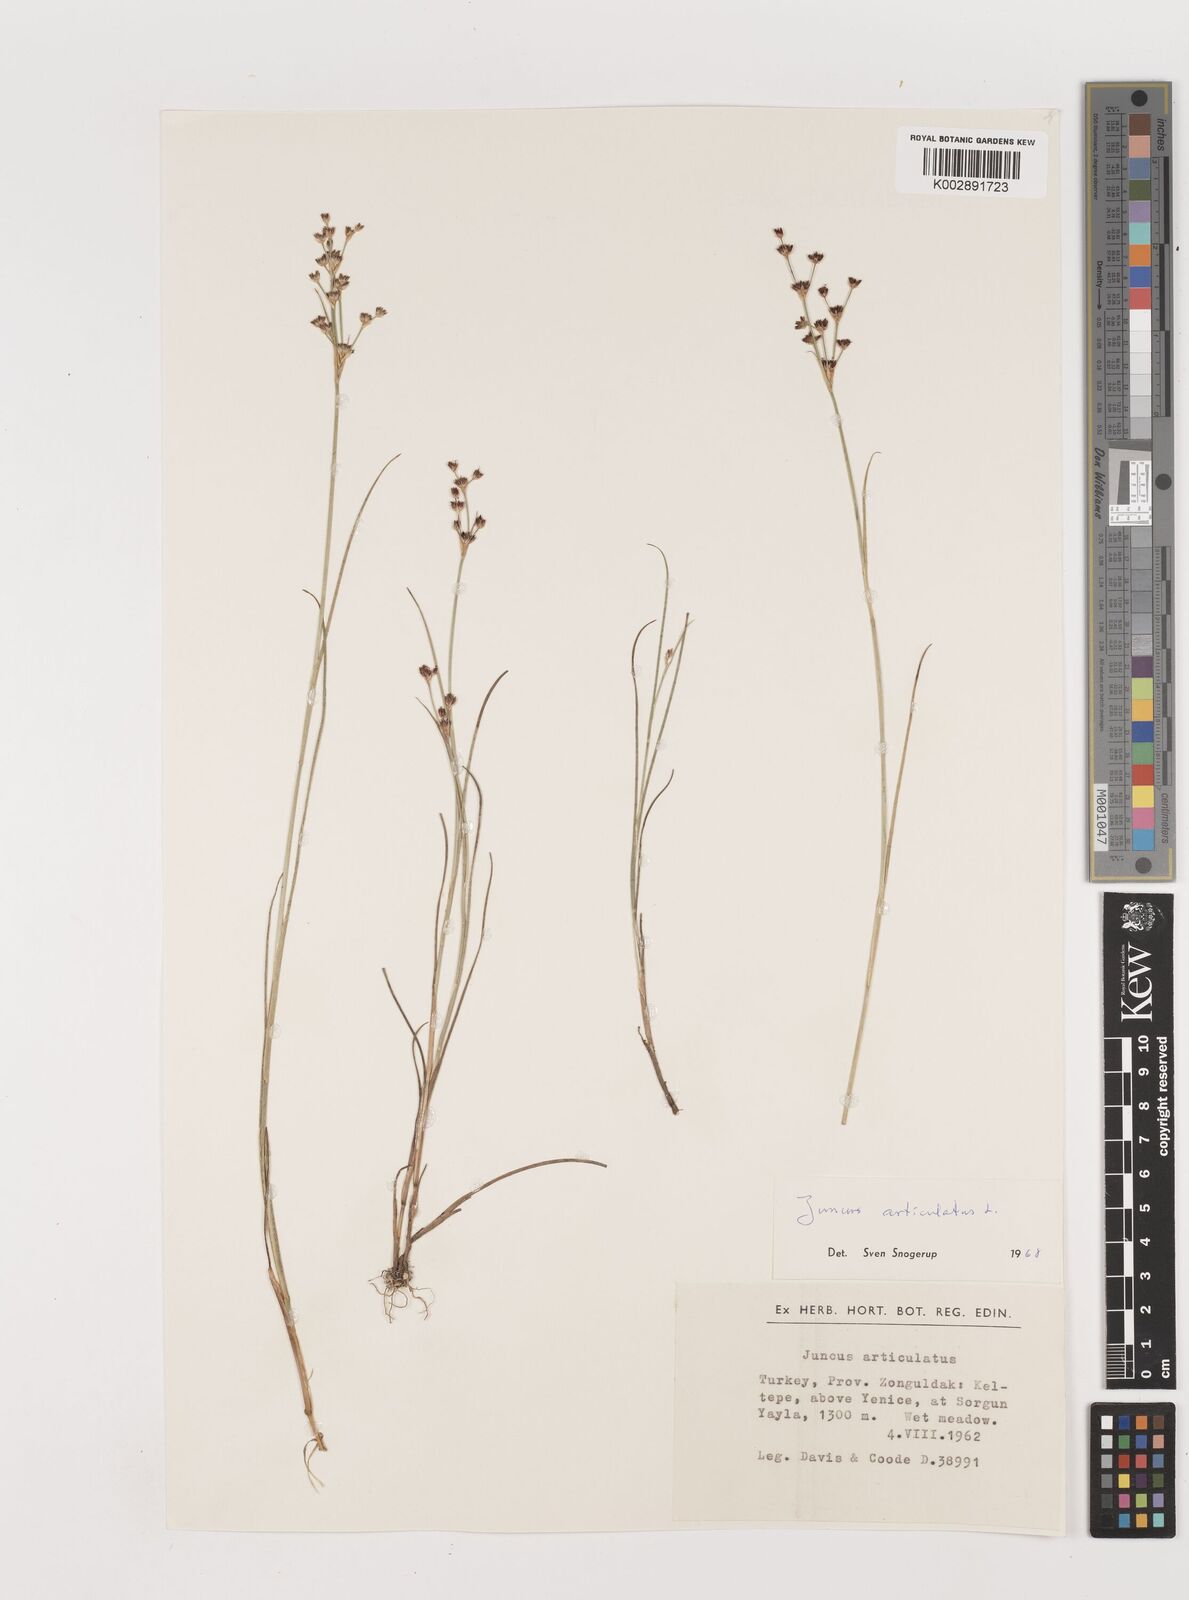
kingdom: Plantae
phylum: Tracheophyta
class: Liliopsida
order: Poales
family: Juncaceae
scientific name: Juncaceae
